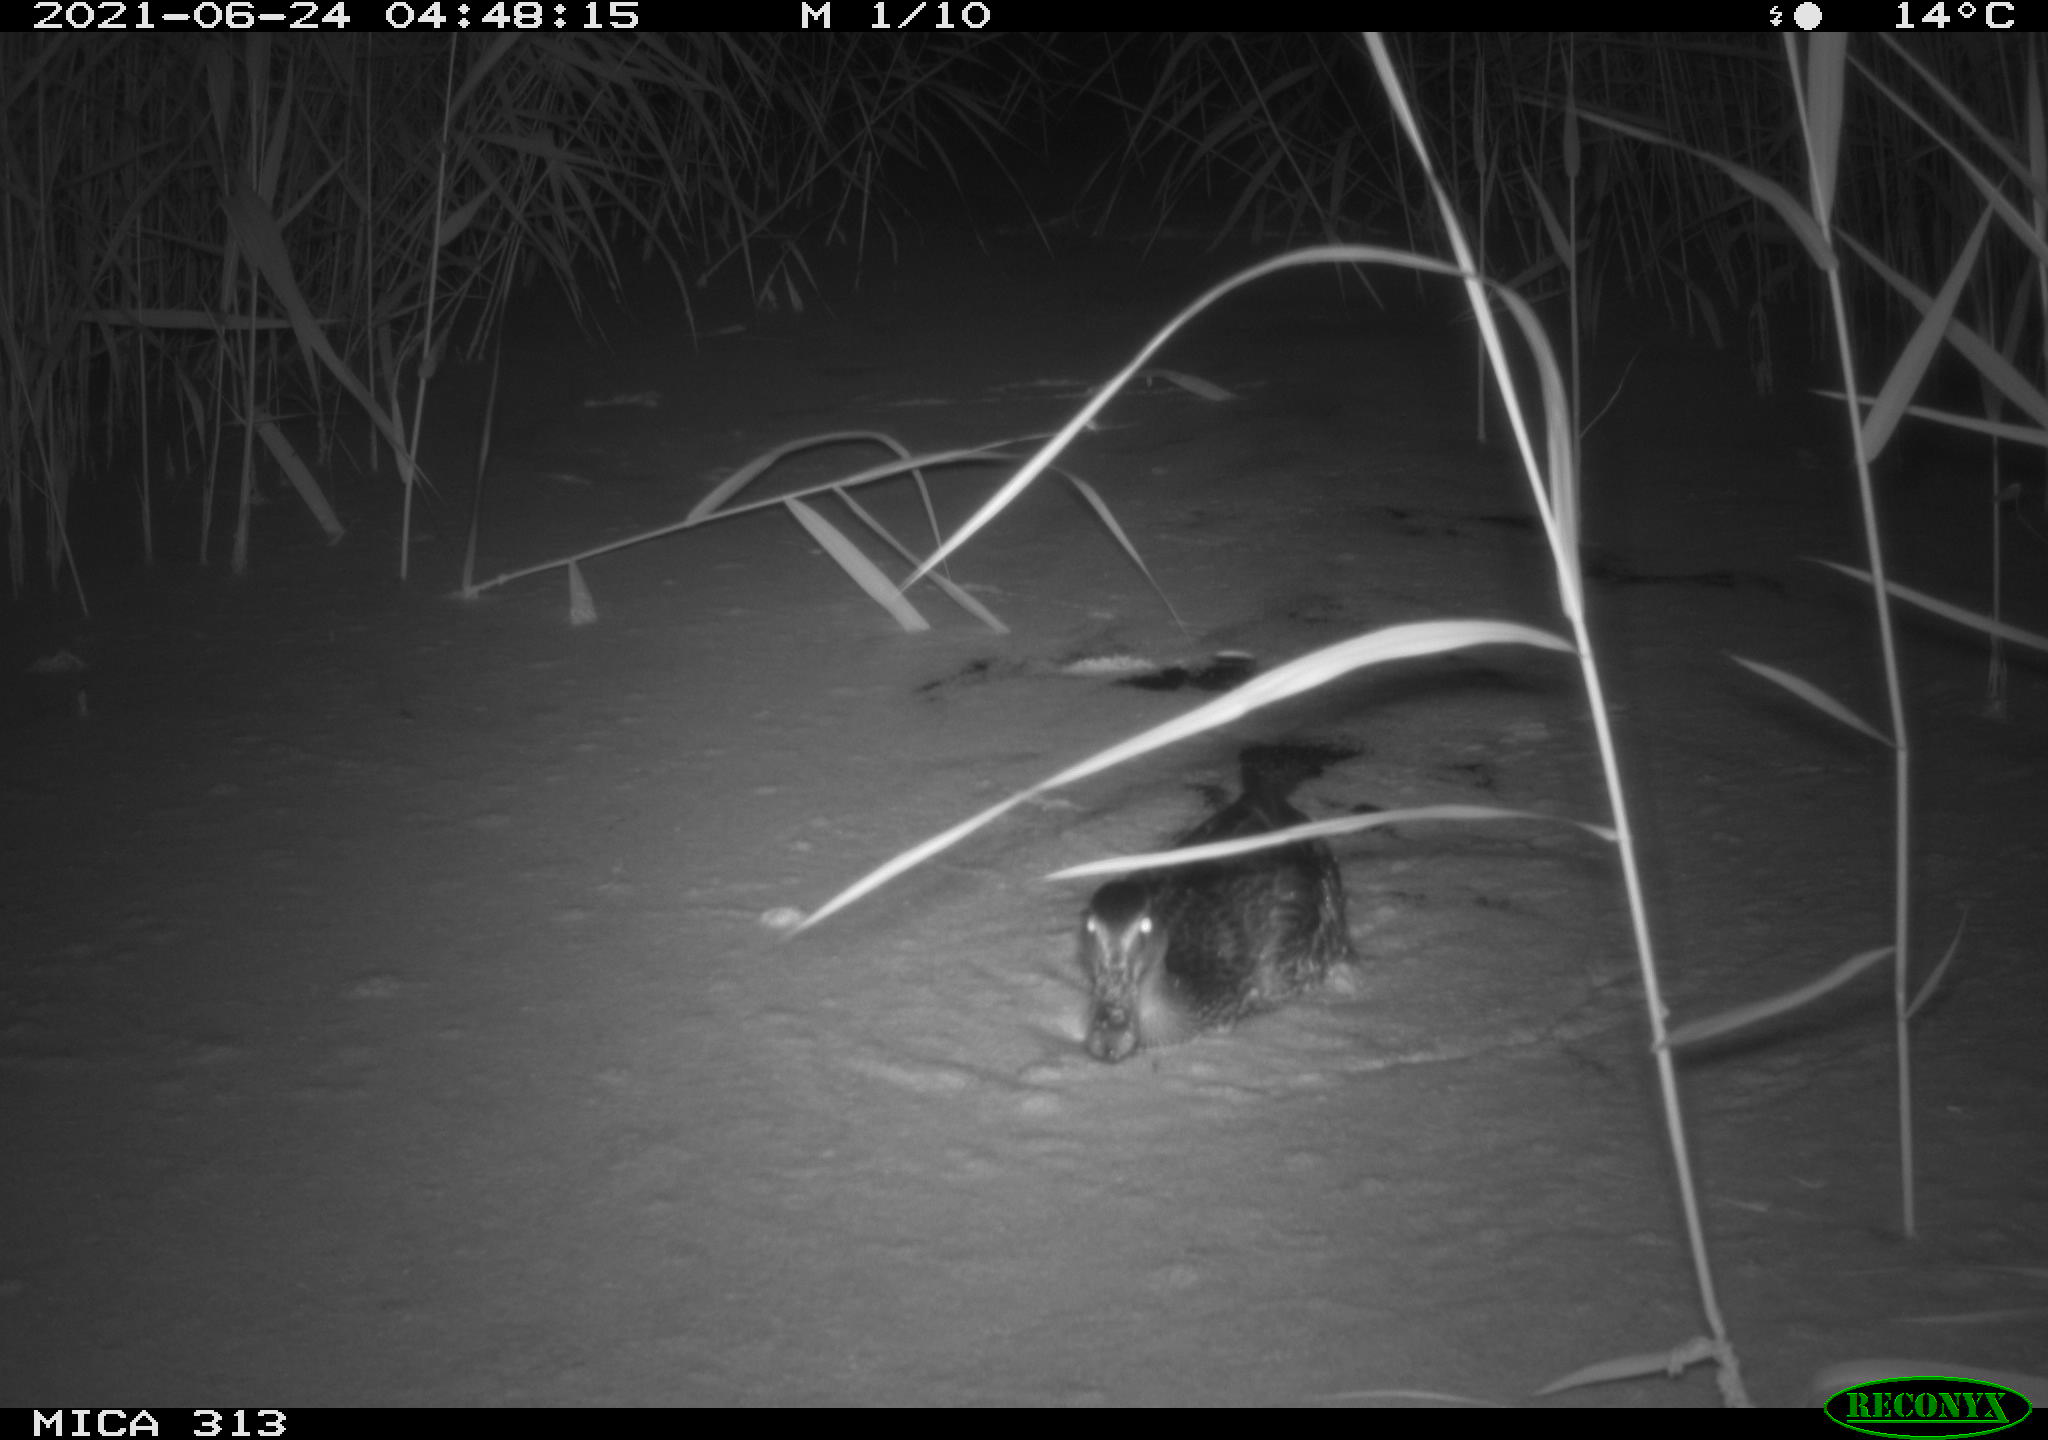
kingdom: Animalia
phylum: Chordata
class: Aves
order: Anseriformes
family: Anatidae
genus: Anas
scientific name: Anas
